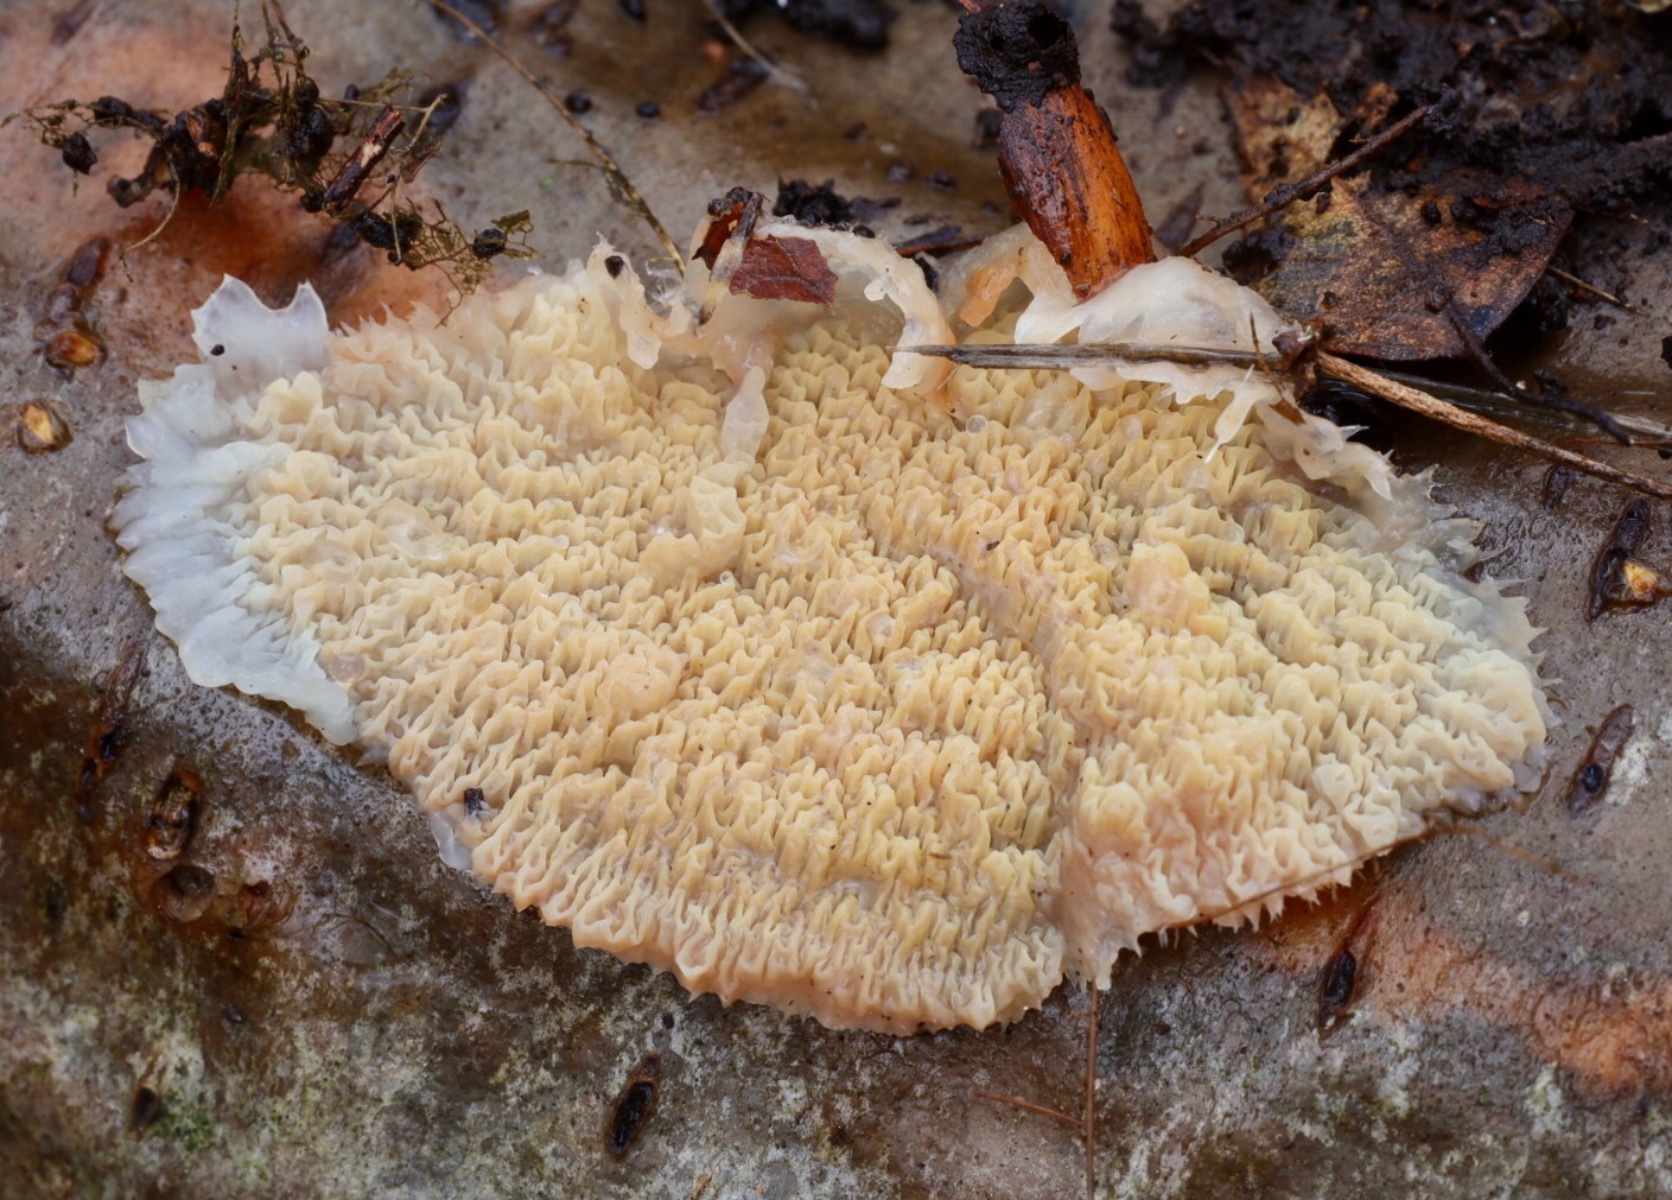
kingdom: Fungi
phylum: Basidiomycota
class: Agaricomycetes
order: Polyporales
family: Meruliaceae
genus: Phlebia
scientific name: Phlebia tremellosa
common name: bævrende åresvamp
